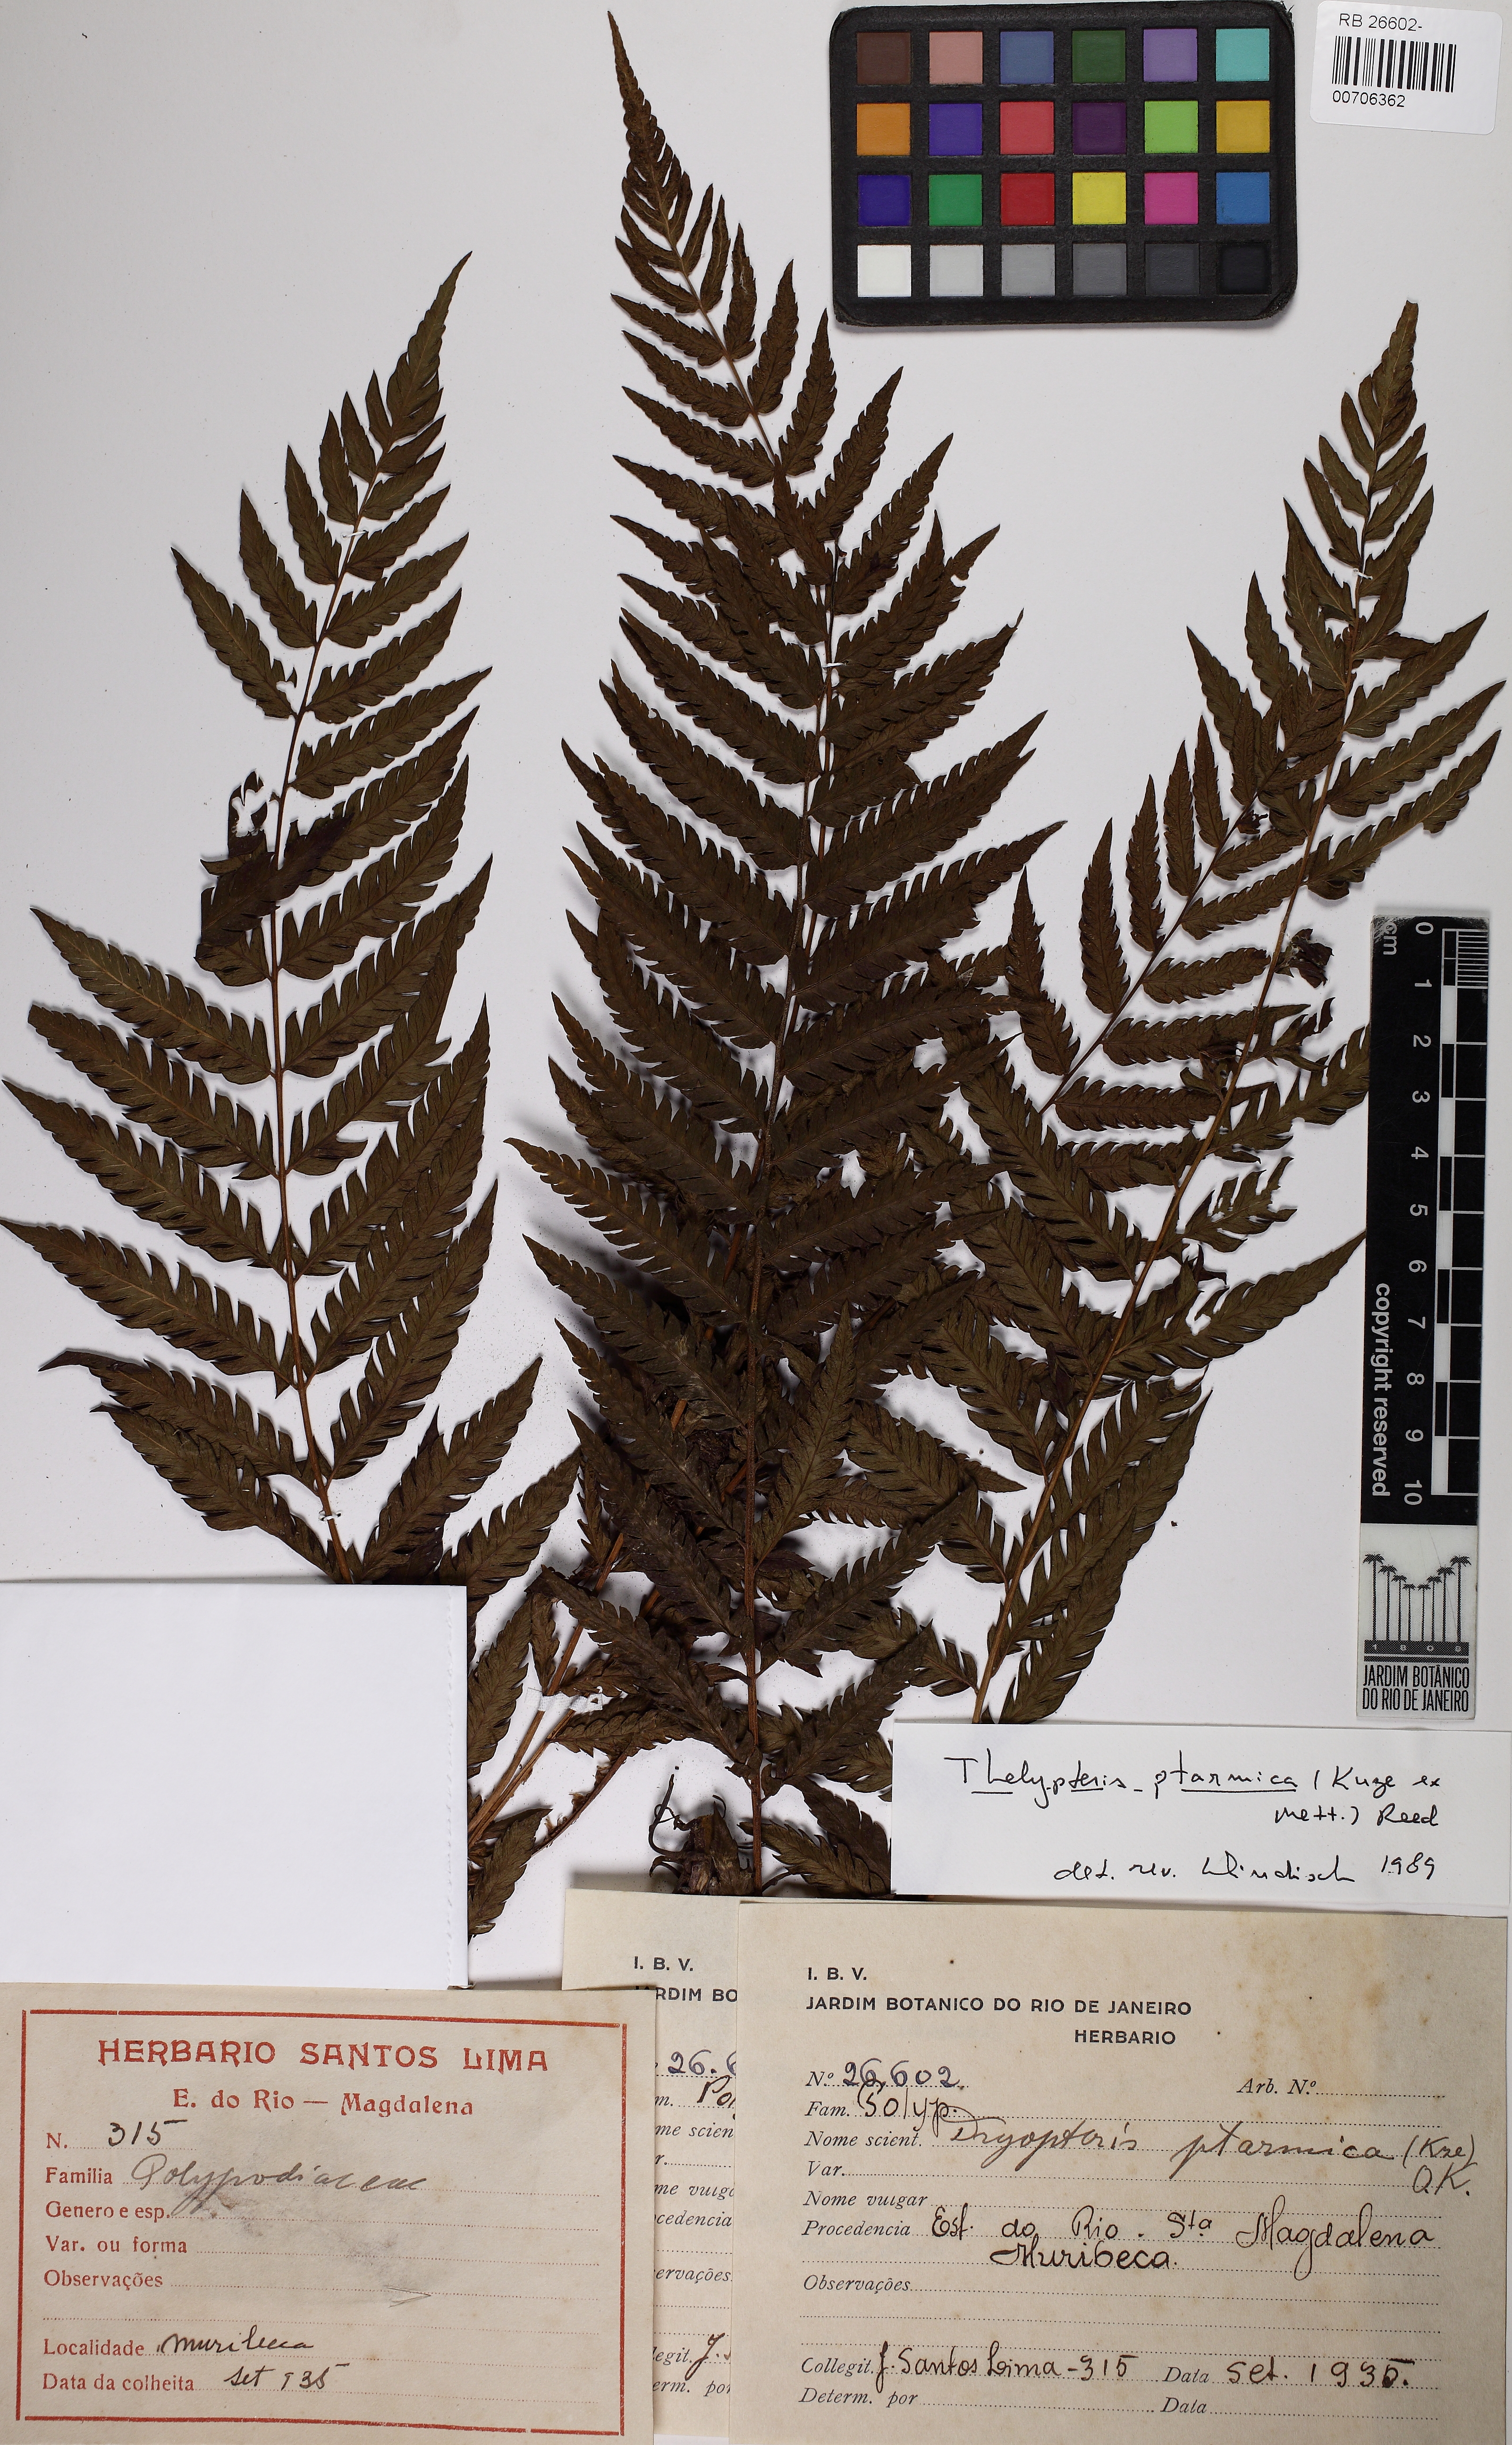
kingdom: Plantae
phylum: Tracheophyta
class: Polypodiopsida
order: Polypodiales
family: Thelypteridaceae
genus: Amauropelta
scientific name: Amauropelta ptarmica
